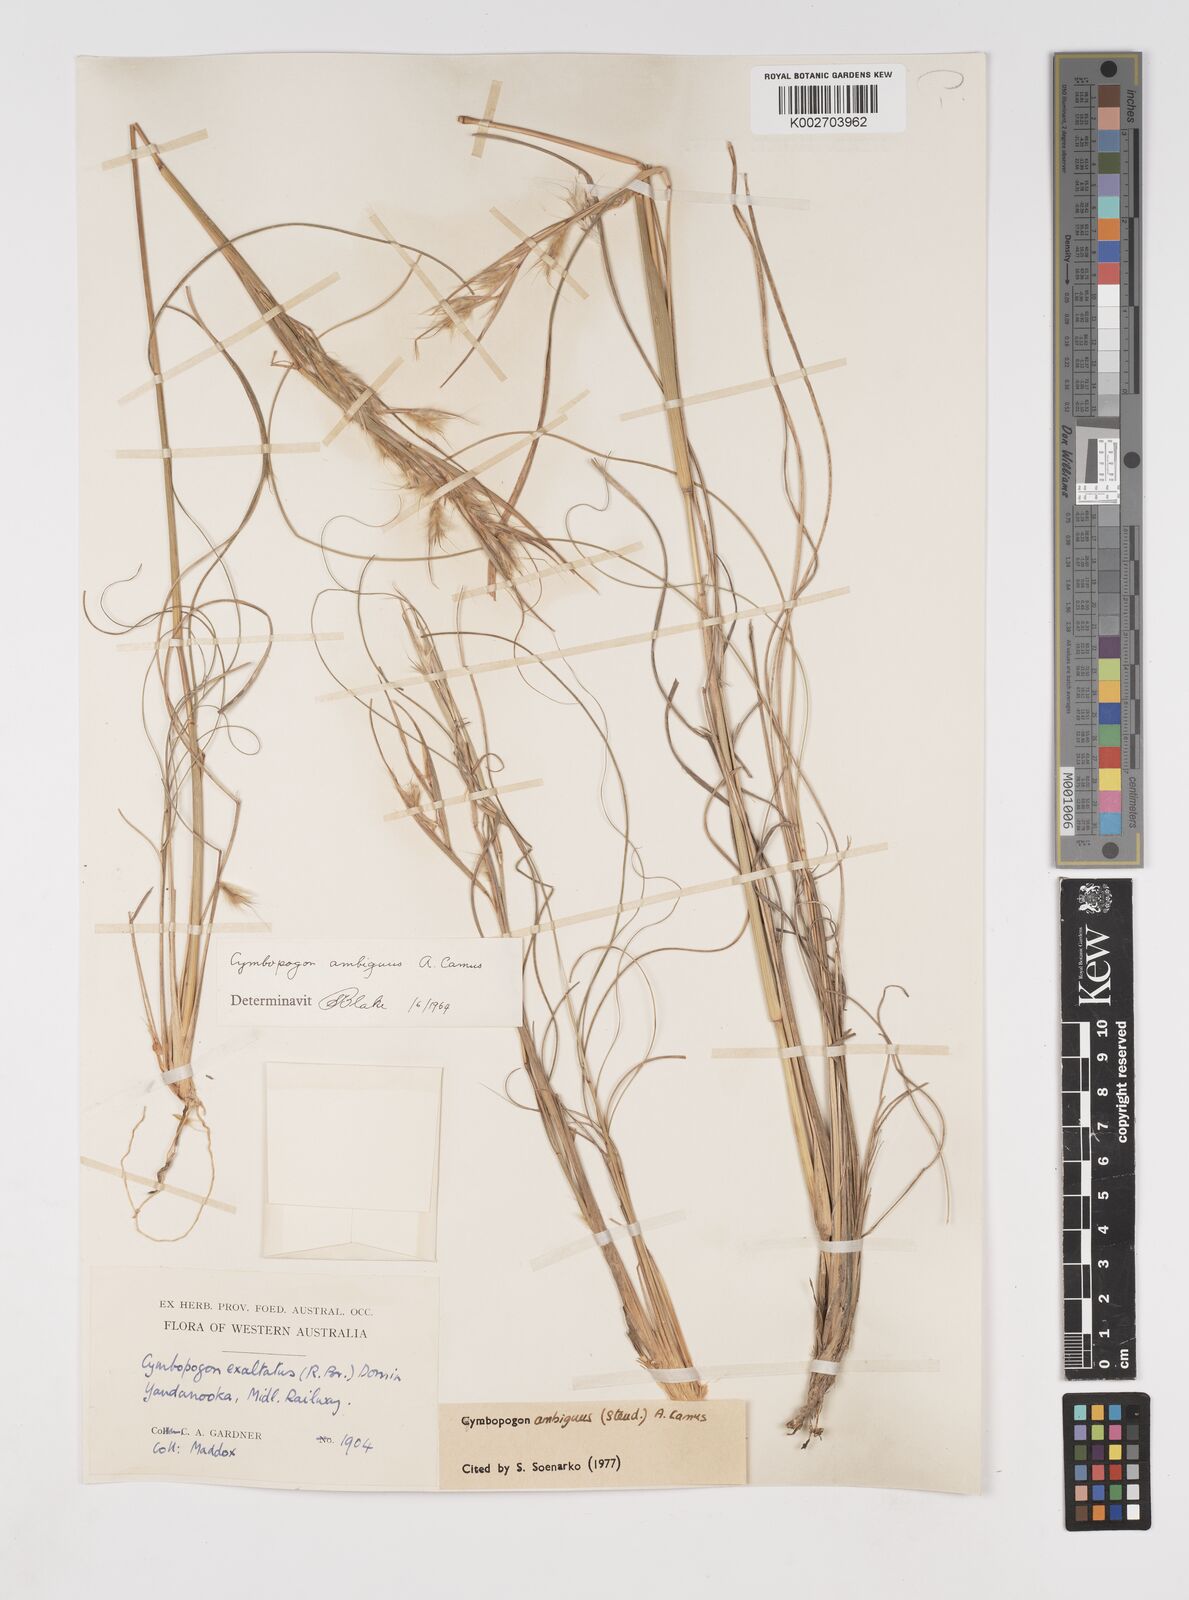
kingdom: Plantae
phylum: Tracheophyta
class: Liliopsida
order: Poales
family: Poaceae
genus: Cymbopogon
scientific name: Cymbopogon ambiguus
